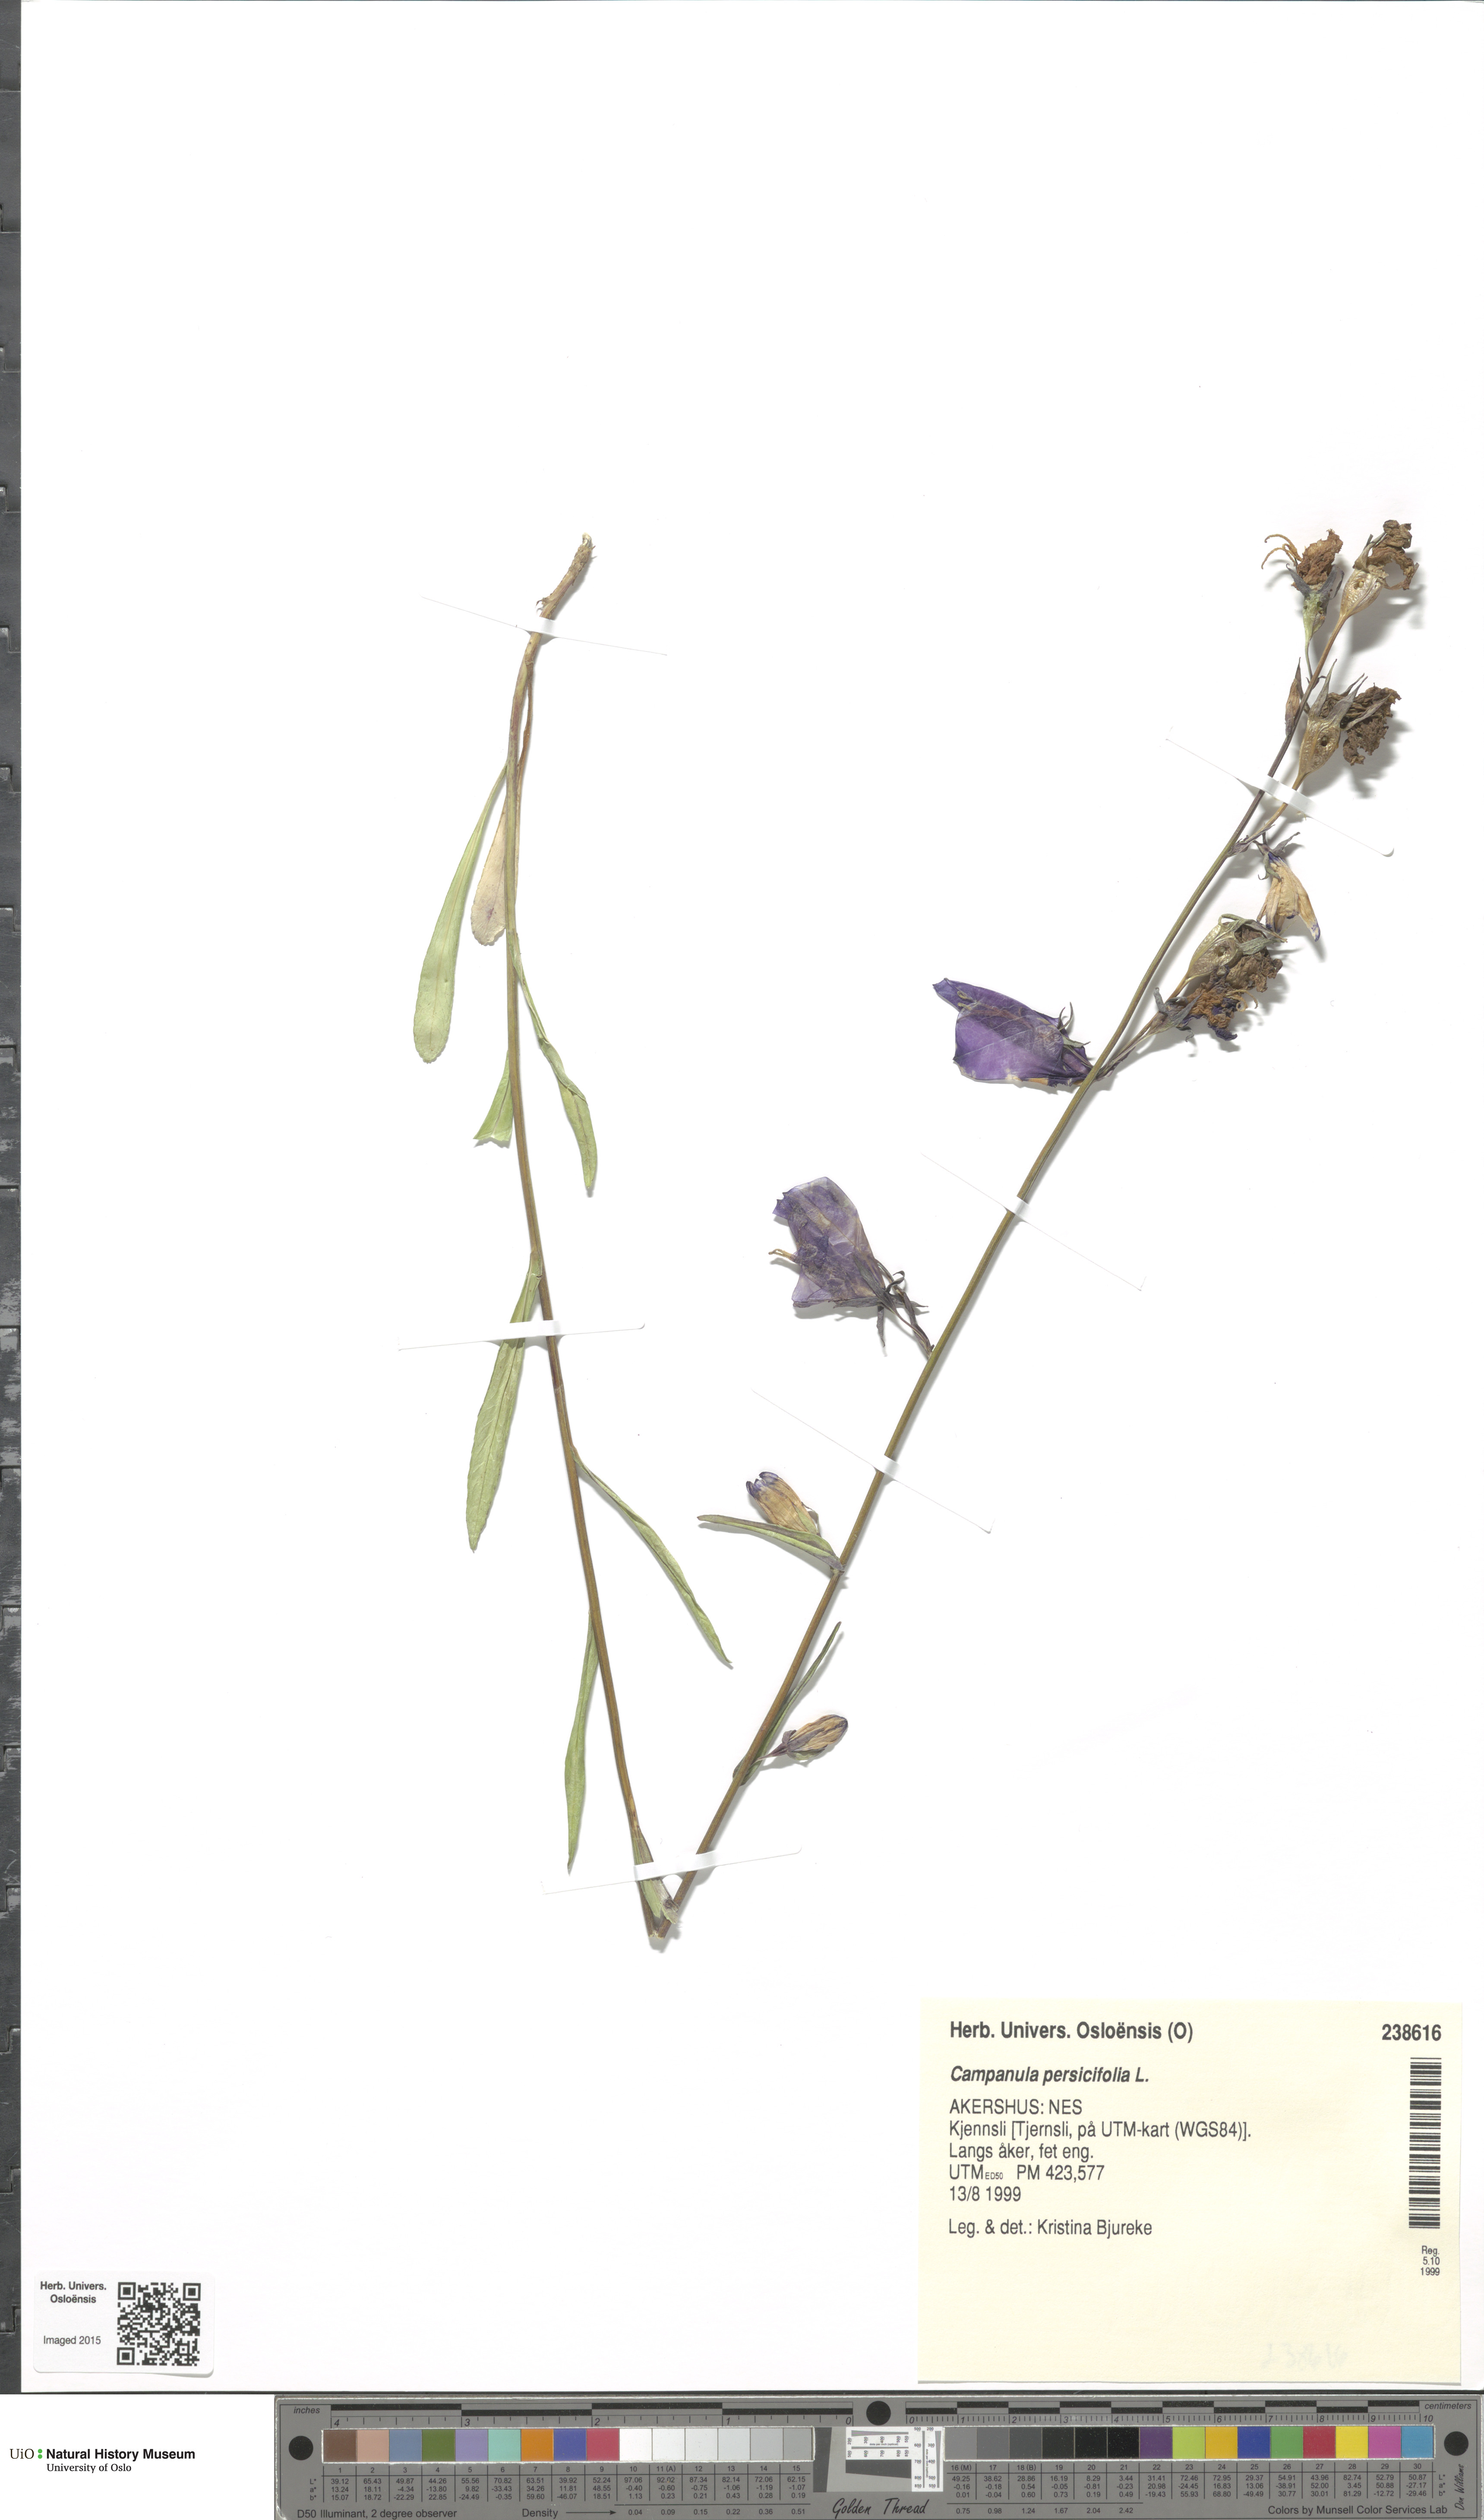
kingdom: Plantae
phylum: Tracheophyta
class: Magnoliopsida
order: Asterales
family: Campanulaceae
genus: Campanula
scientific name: Campanula persicifolia
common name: Peach-leaved bellflower
